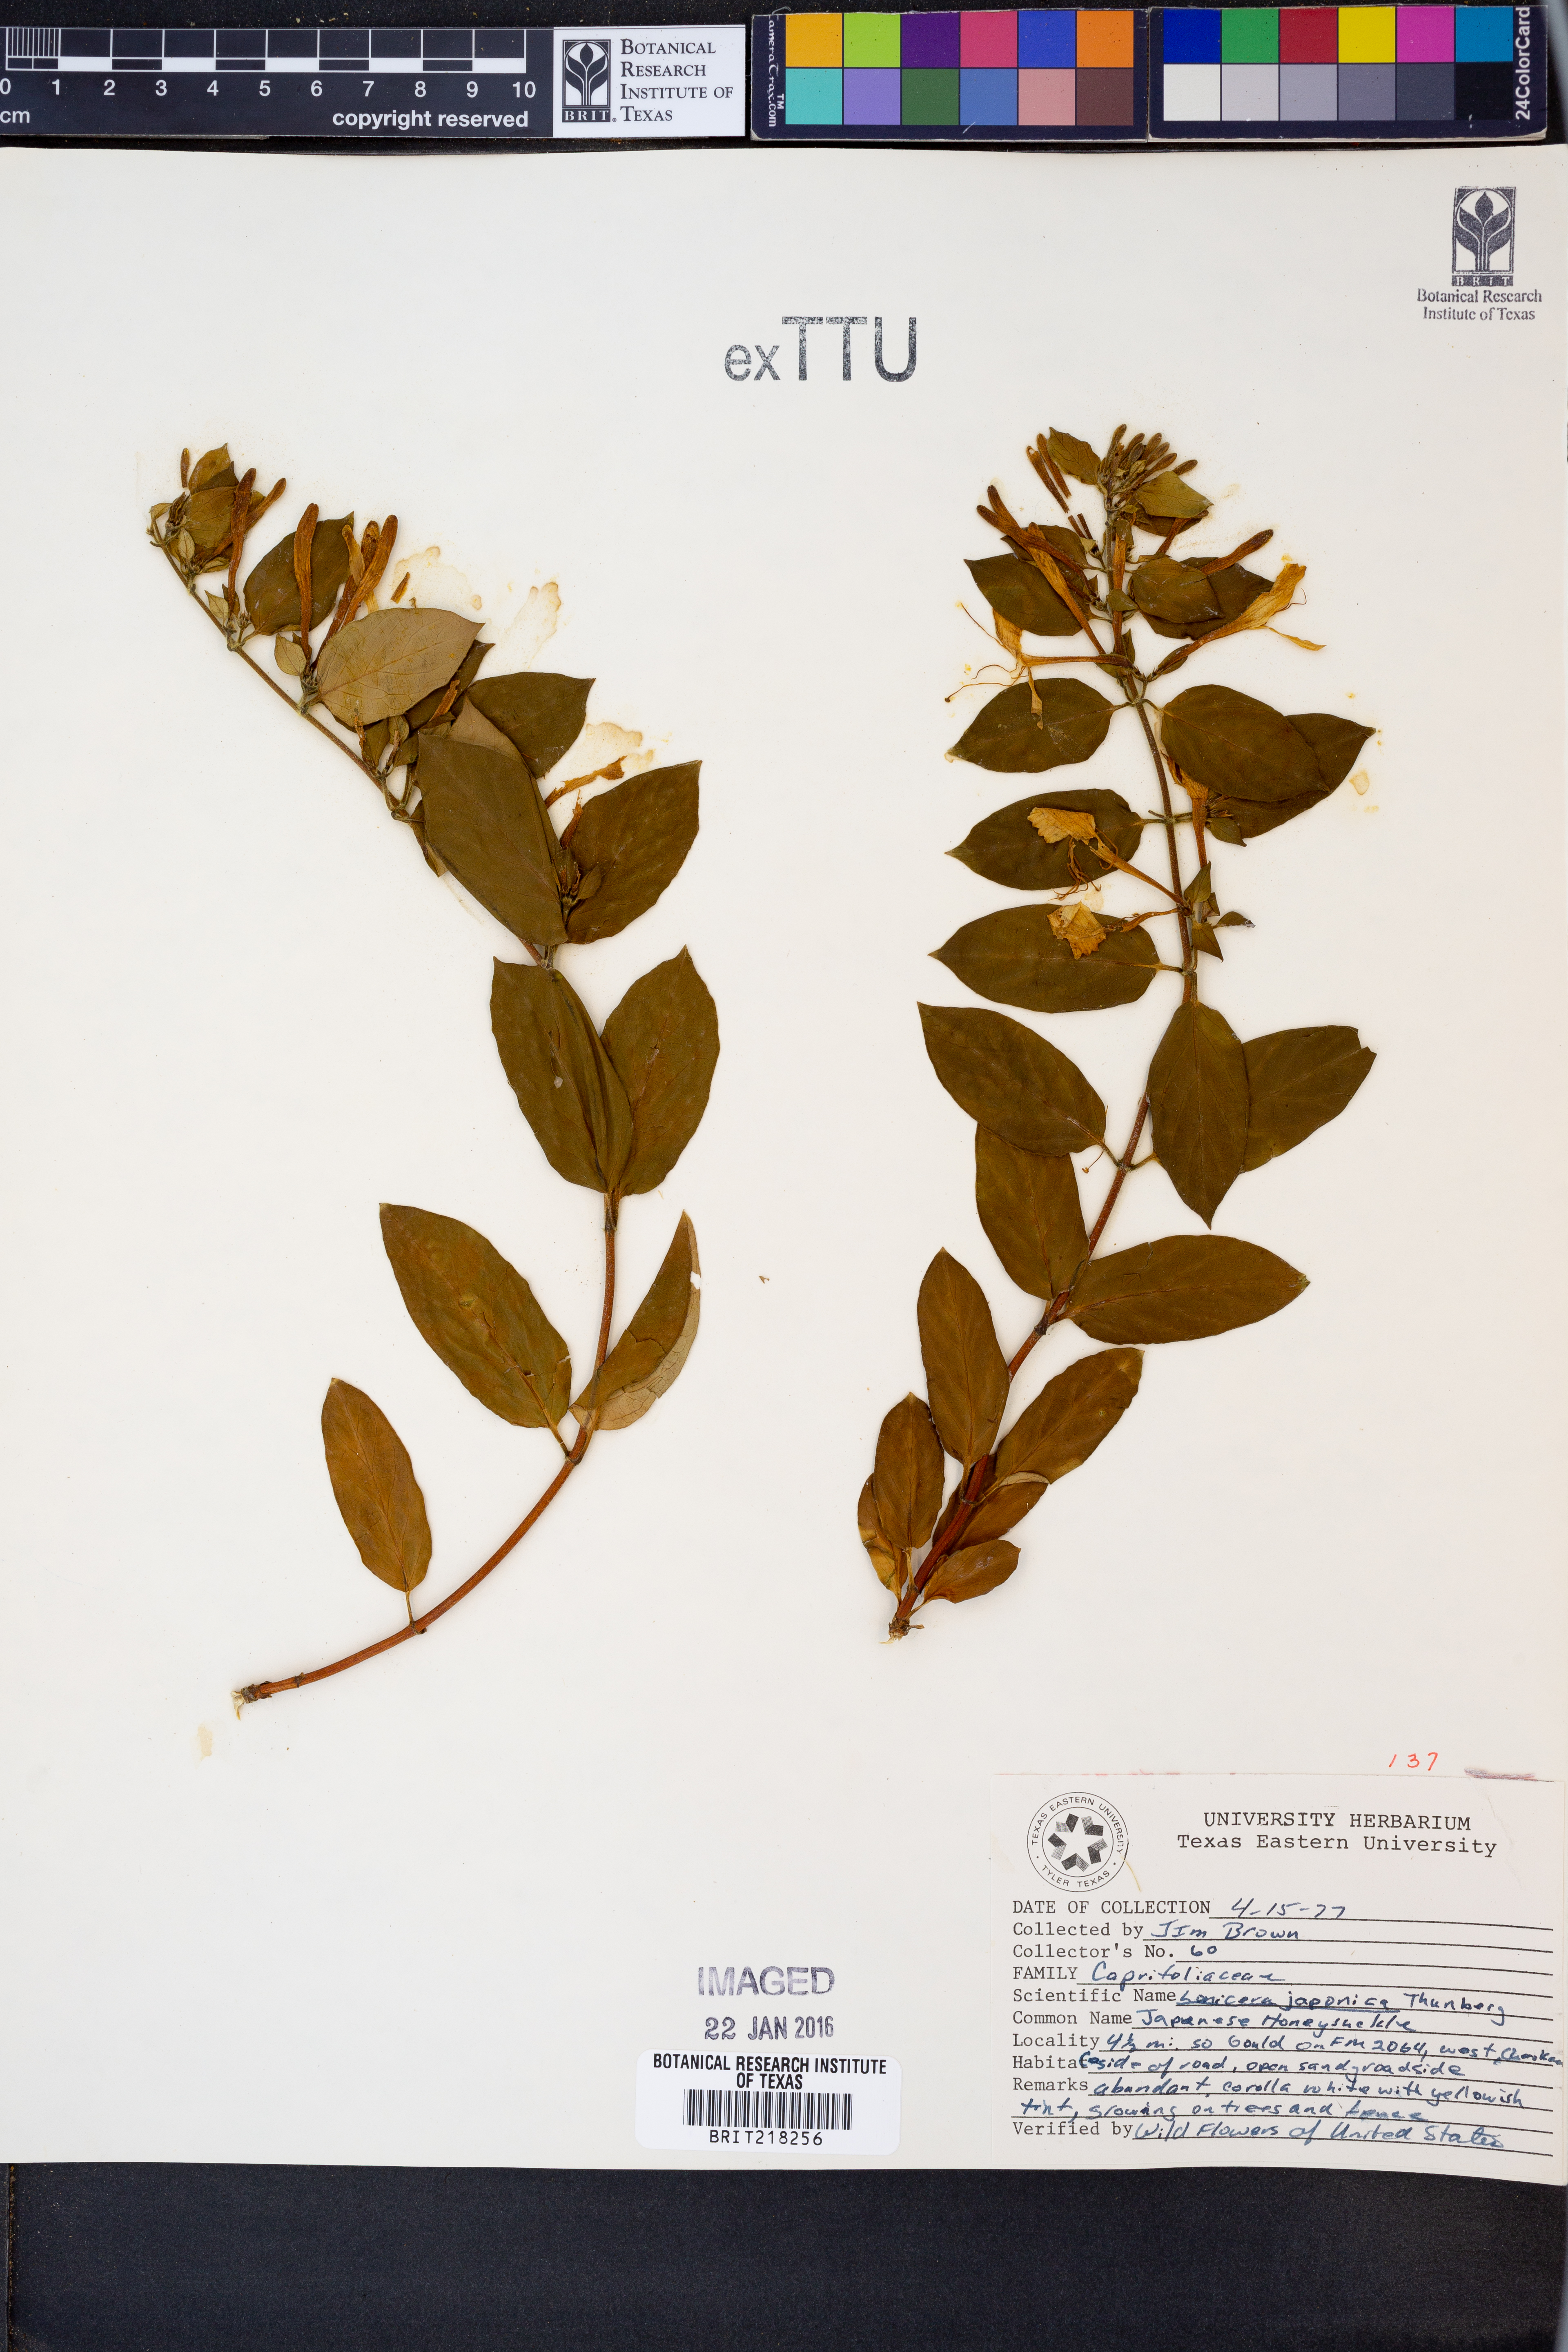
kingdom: Plantae
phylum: Tracheophyta
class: Magnoliopsida
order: Dipsacales
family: Caprifoliaceae
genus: Lonicera
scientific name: Lonicera japonica
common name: Japanese honeysuckle
